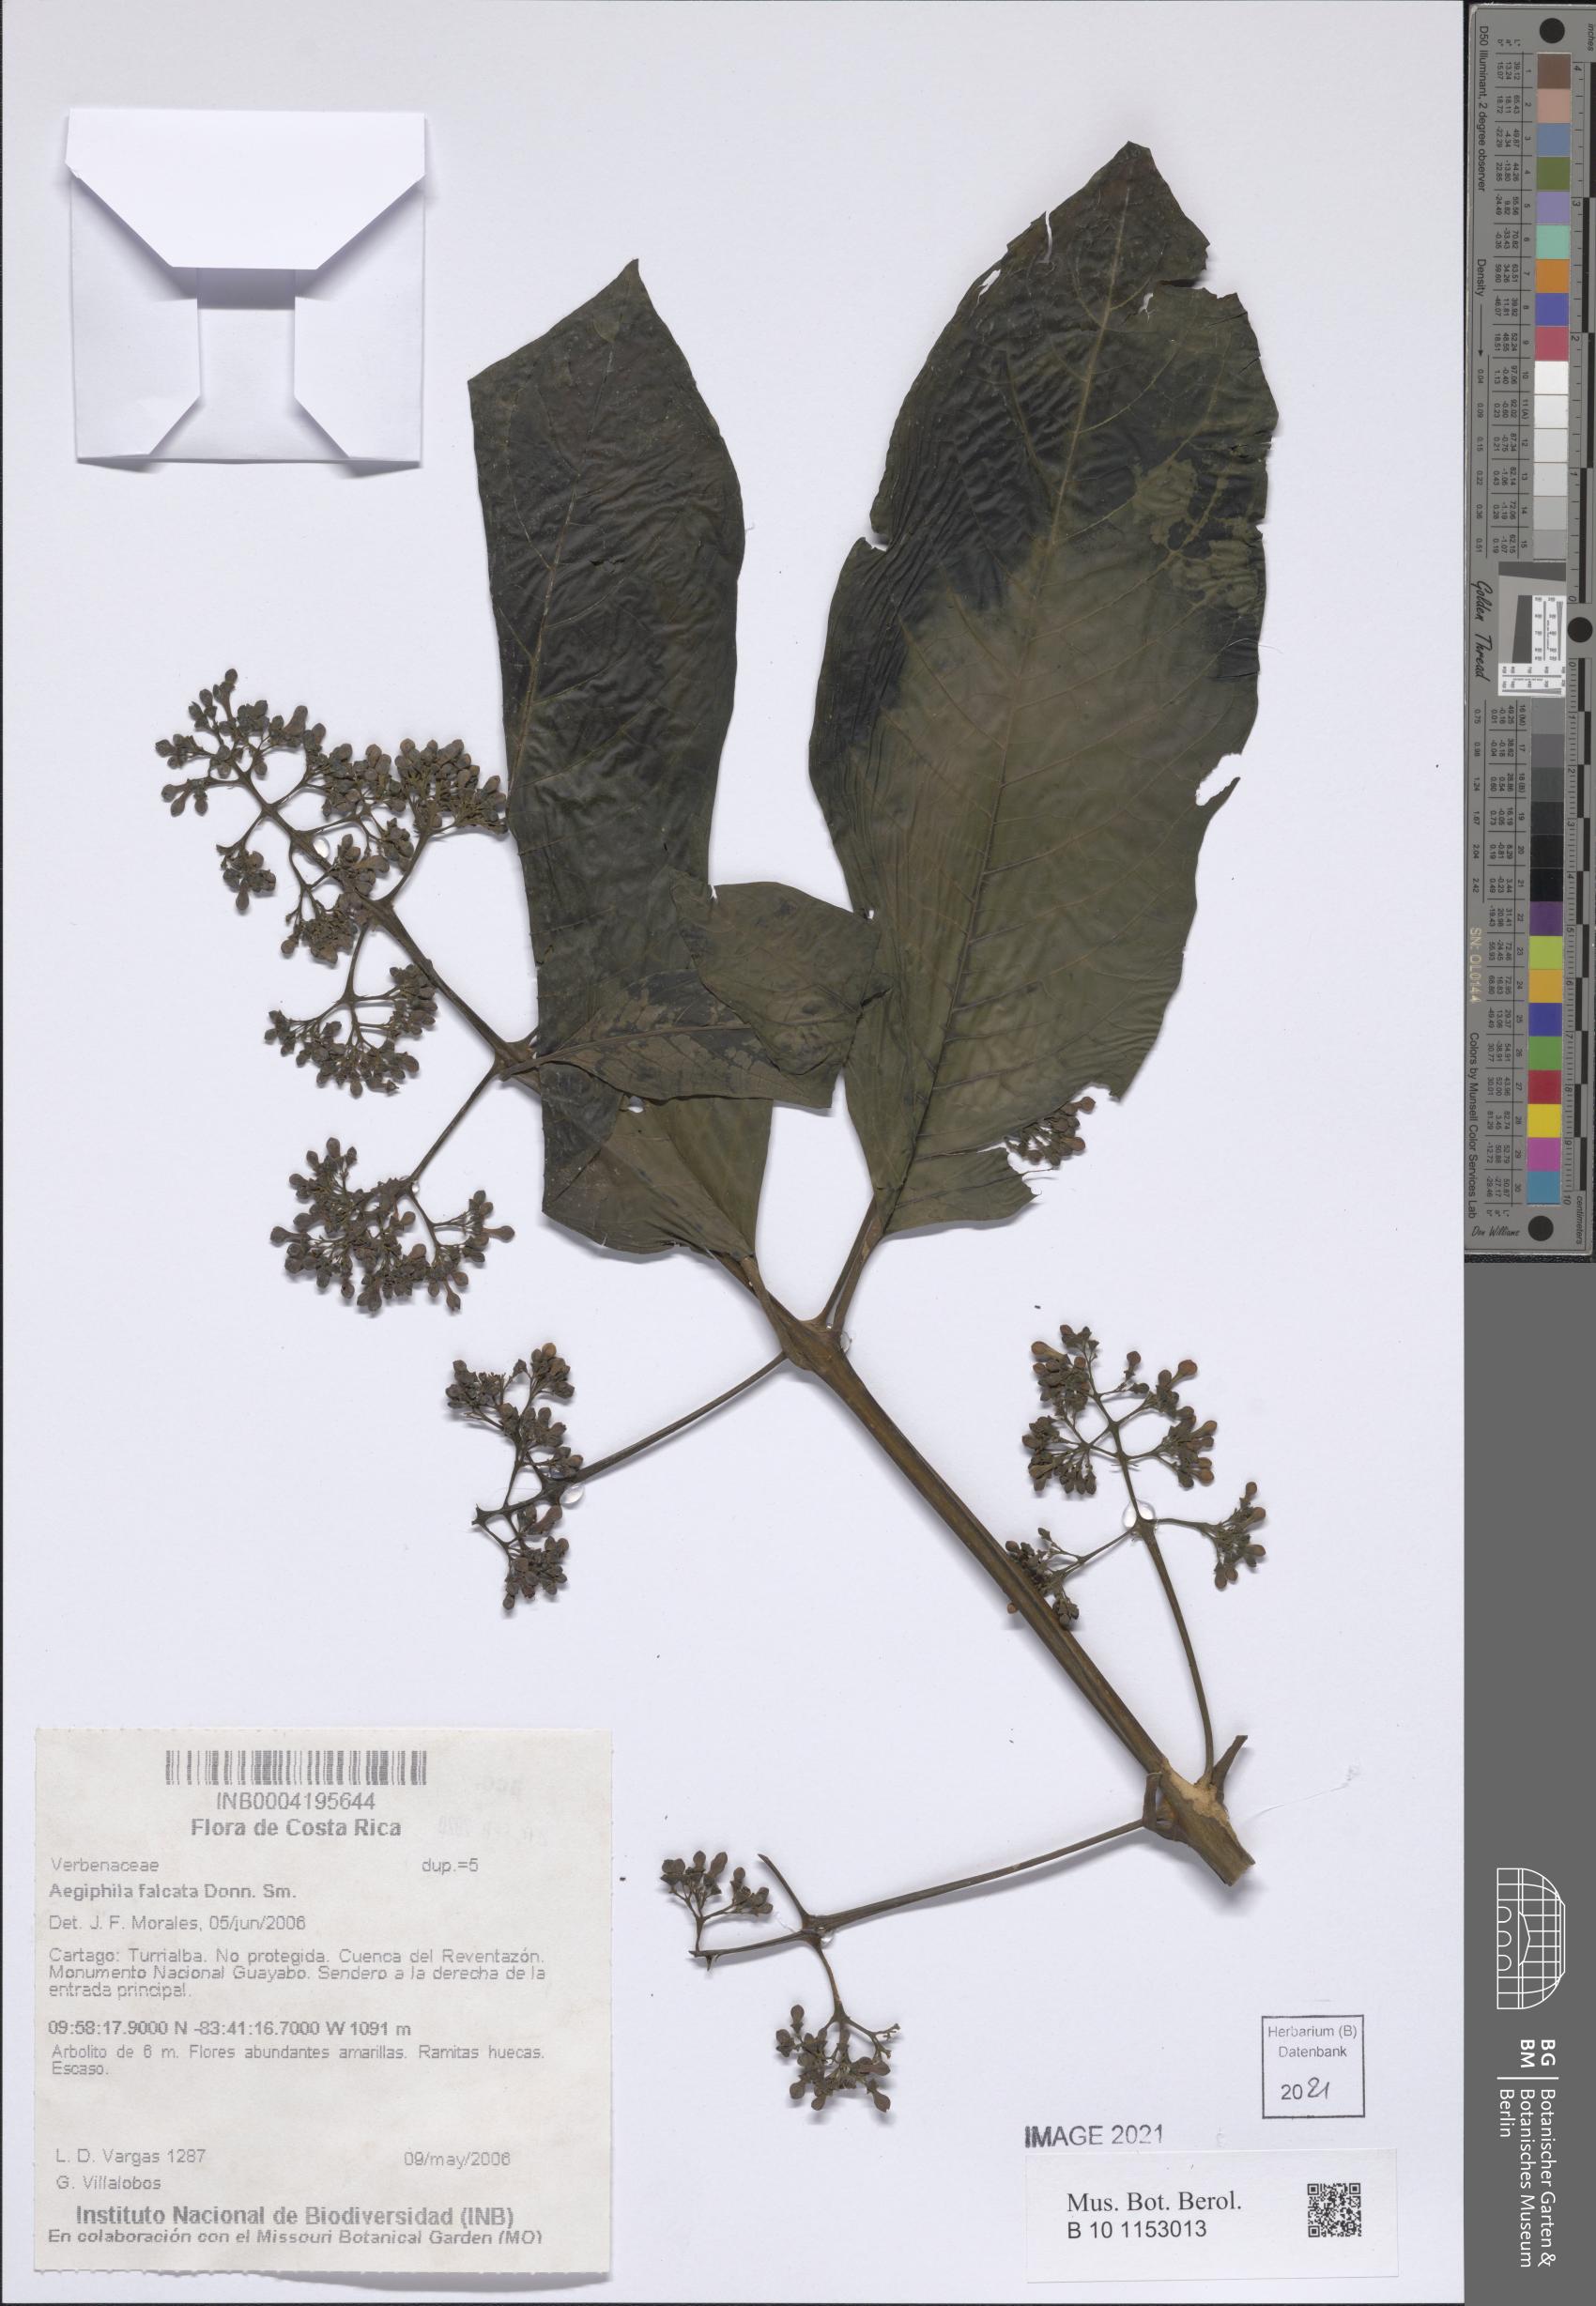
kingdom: Plantae
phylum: Tracheophyta
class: Magnoliopsida
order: Lamiales
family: Lamiaceae
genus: Aegiphila
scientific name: Aegiphila falcata
